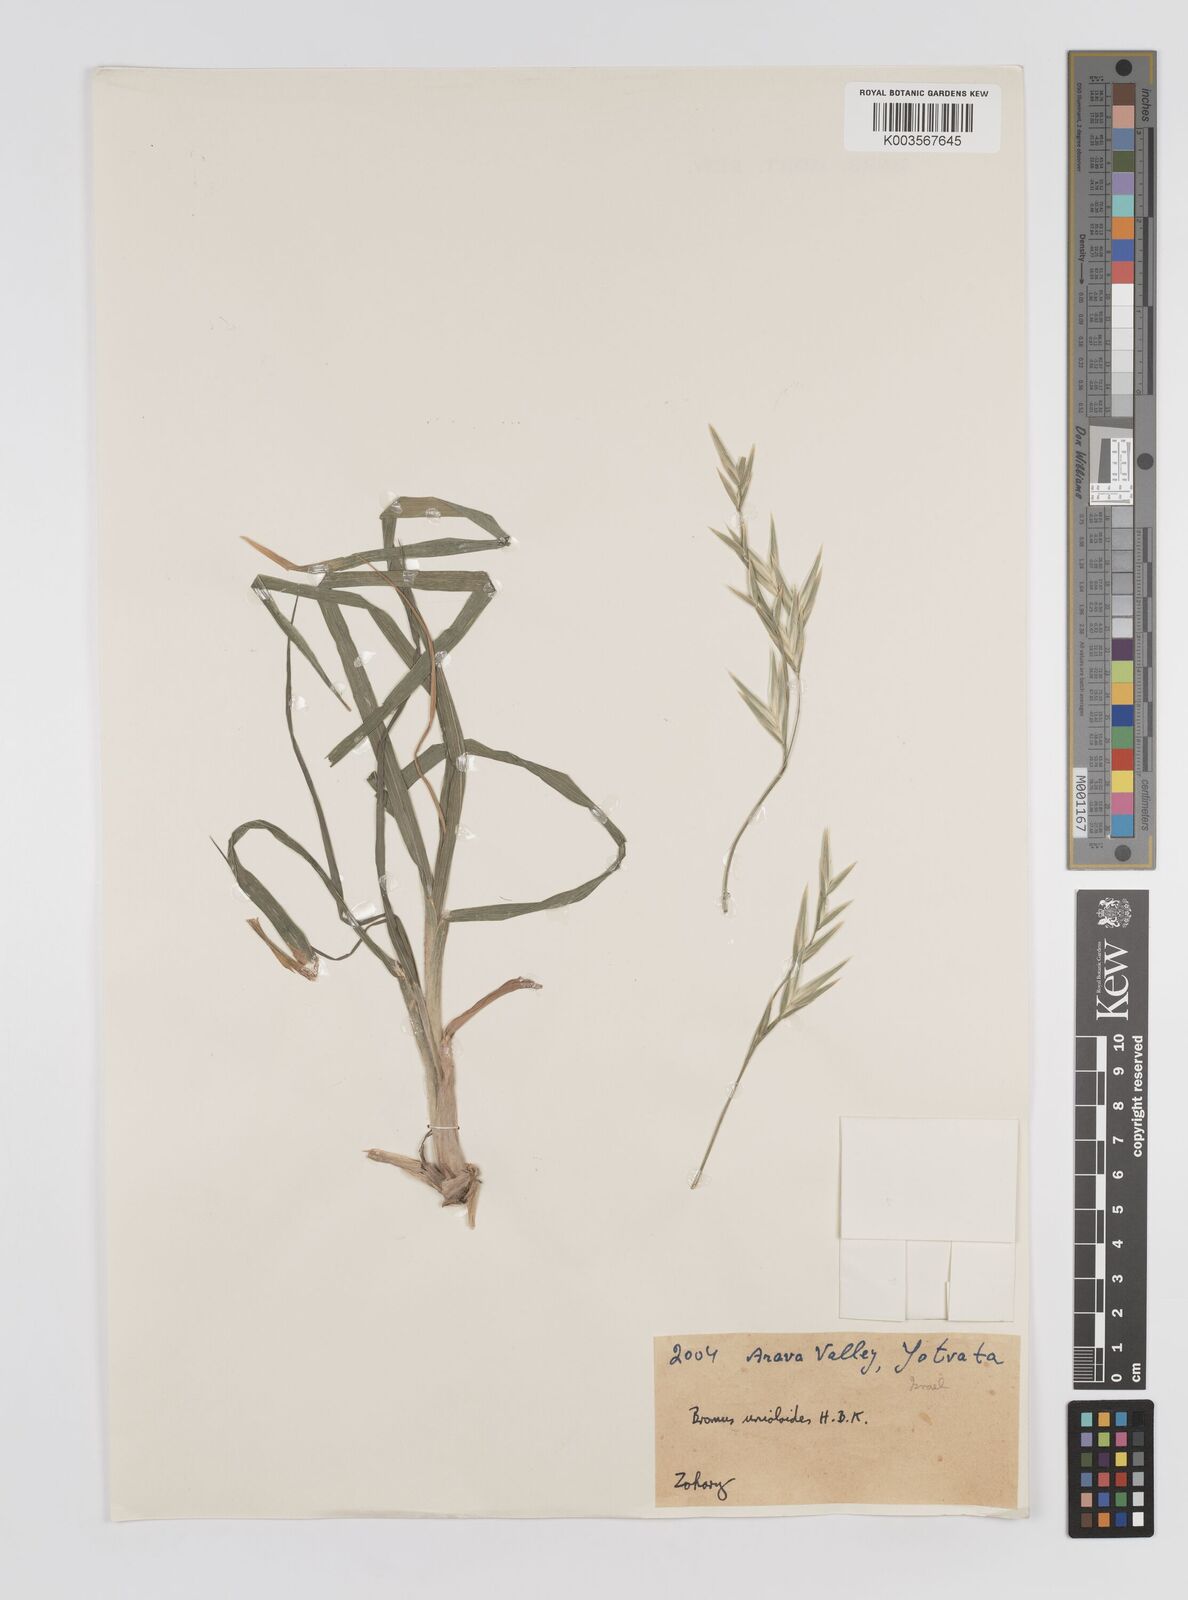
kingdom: Plantae
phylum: Tracheophyta
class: Liliopsida
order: Poales
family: Poaceae
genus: Bromus
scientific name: Bromus catharticus
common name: Rescuegrass
